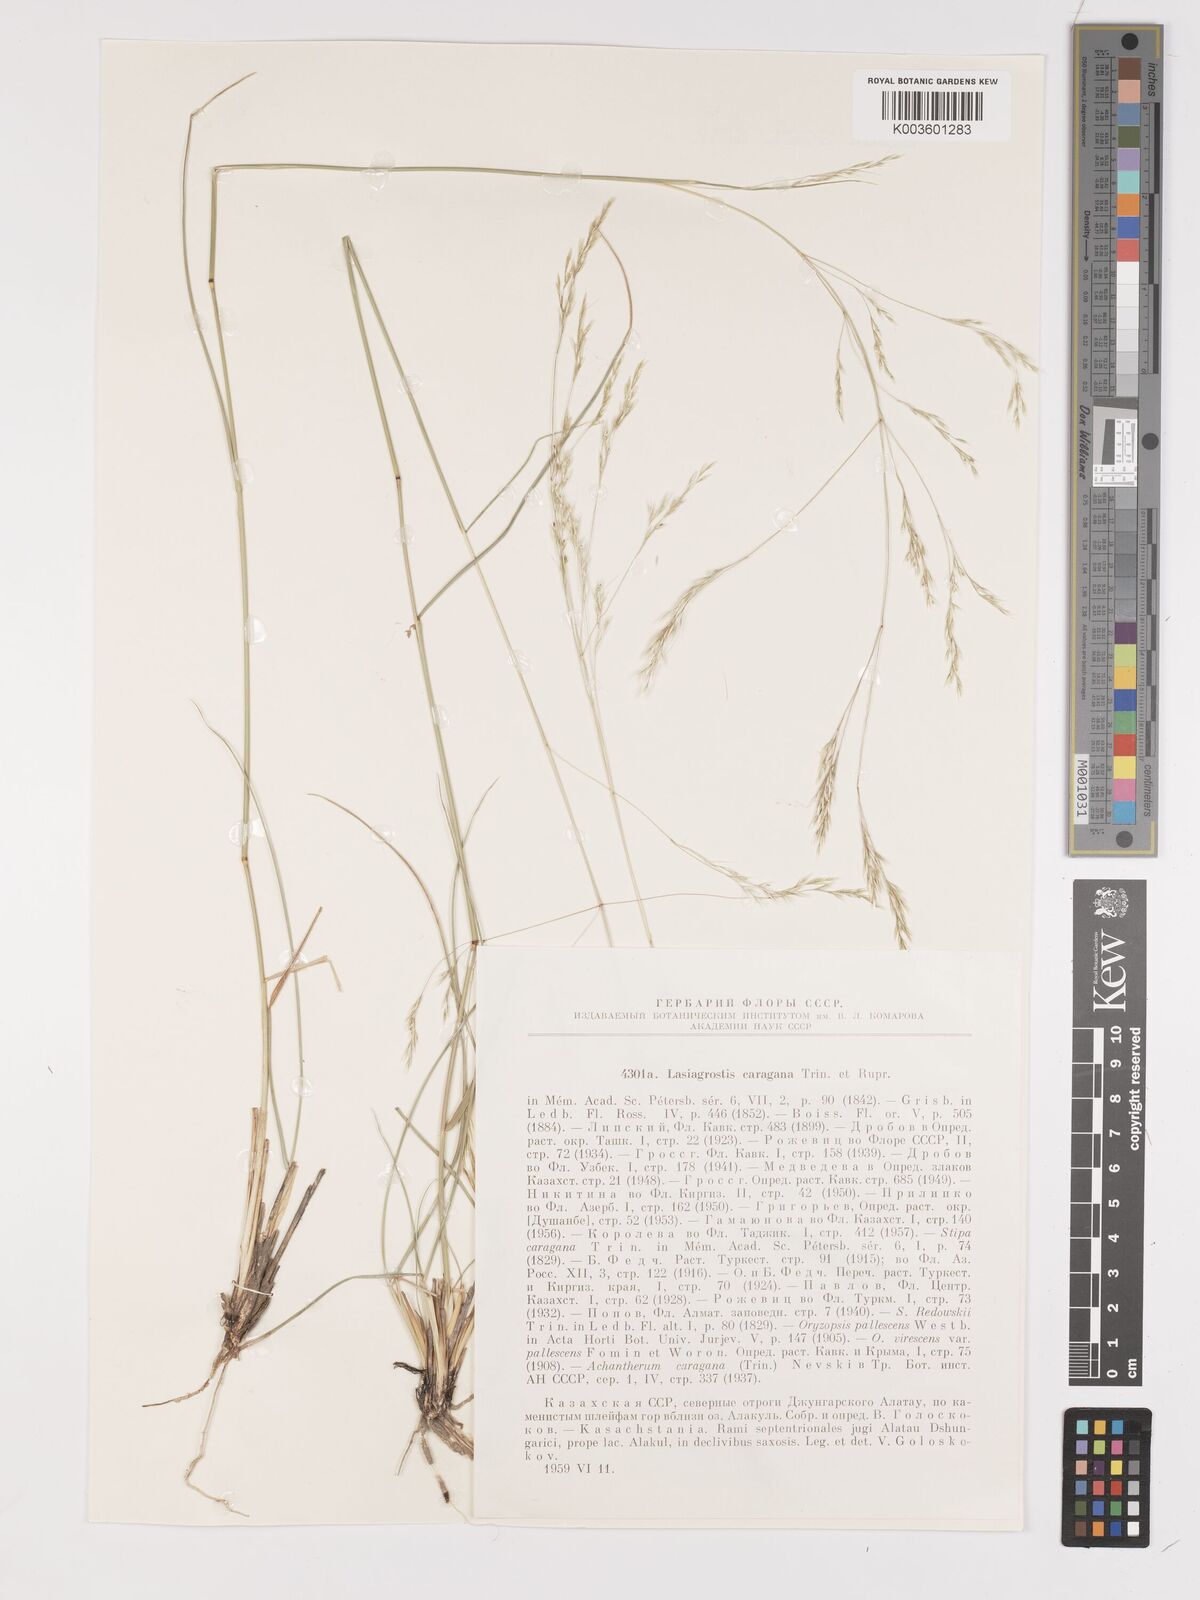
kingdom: Plantae
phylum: Tracheophyta
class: Liliopsida
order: Poales
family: Poaceae
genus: Stipa
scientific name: Stipa conferta
